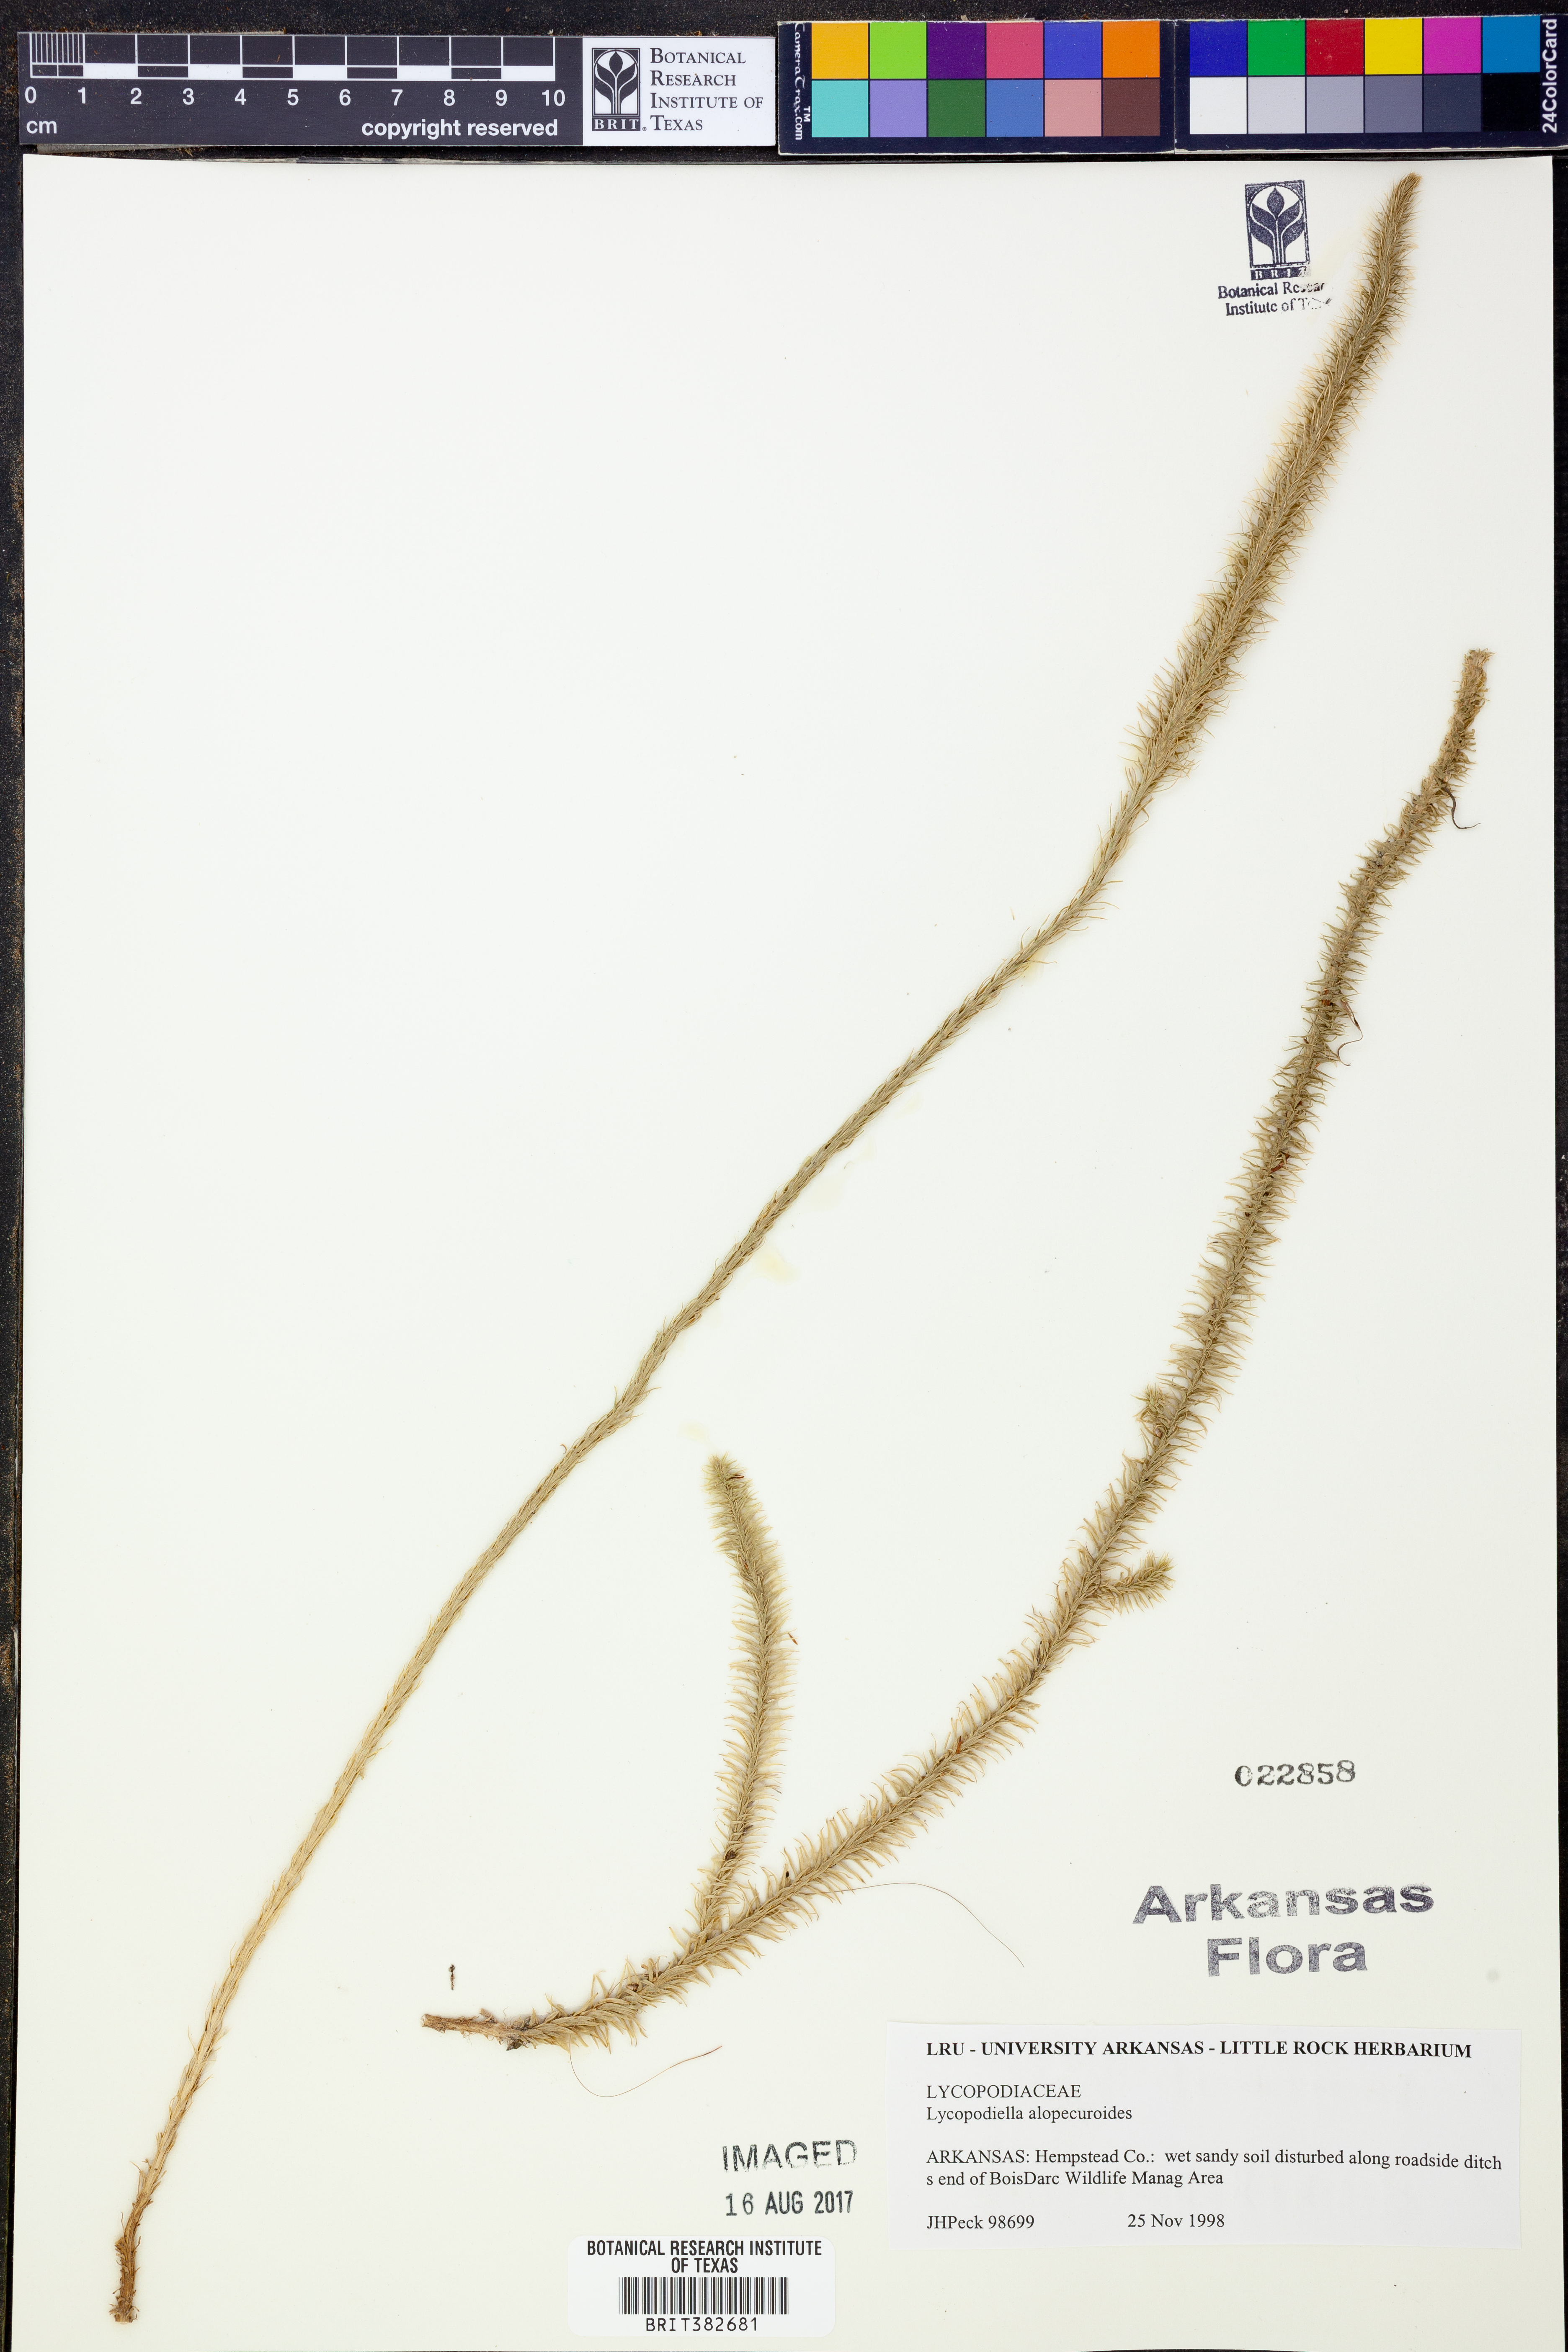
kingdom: Plantae
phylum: Tracheophyta
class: Lycopodiopsida
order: Lycopodiales
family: Lycopodiaceae
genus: Lycopodiella
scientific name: Lycopodiella alopecuroides
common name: Foxtail clubmoss
